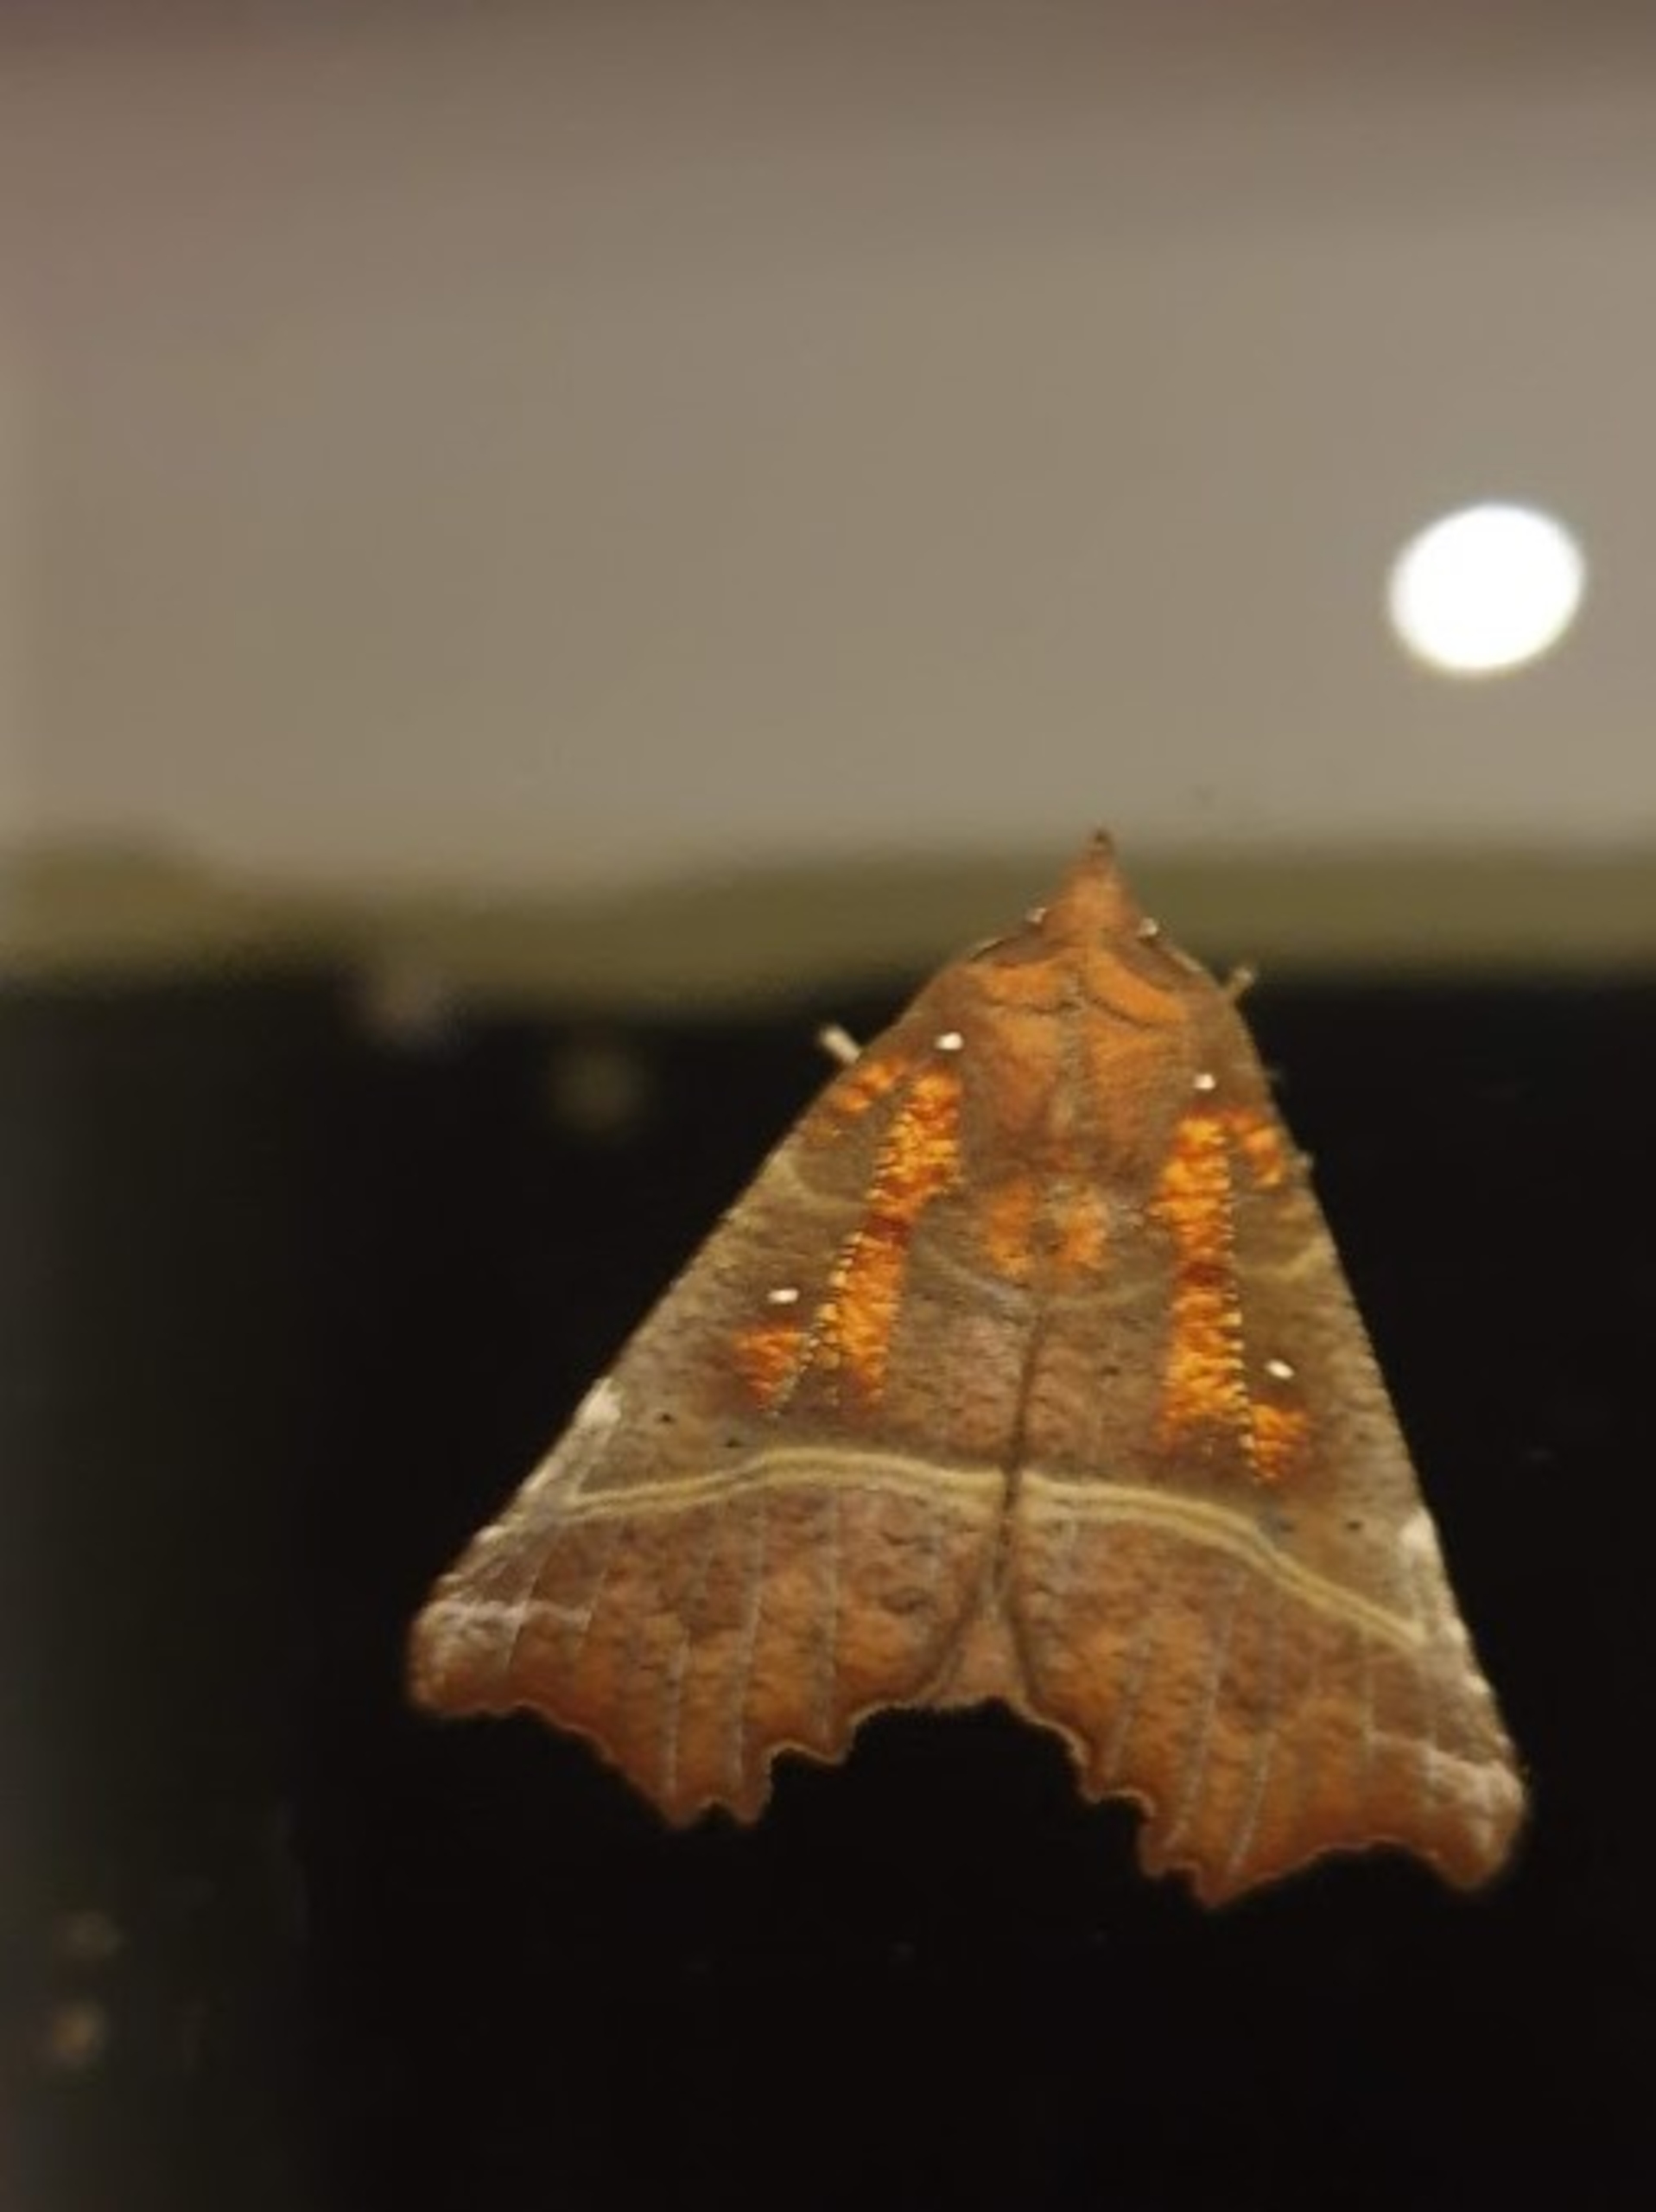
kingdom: Animalia
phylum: Arthropoda
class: Insecta
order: Lepidoptera
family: Erebidae
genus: Scoliopteryx
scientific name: Scoliopteryx libatrix
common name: Husmoderugle
